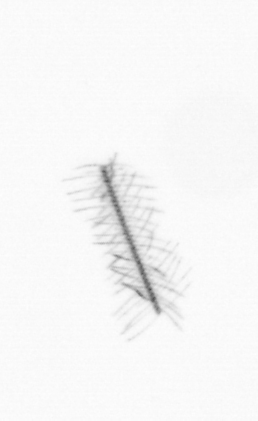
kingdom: Chromista
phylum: Ochrophyta
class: Bacillariophyceae
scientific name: Bacillariophyceae
